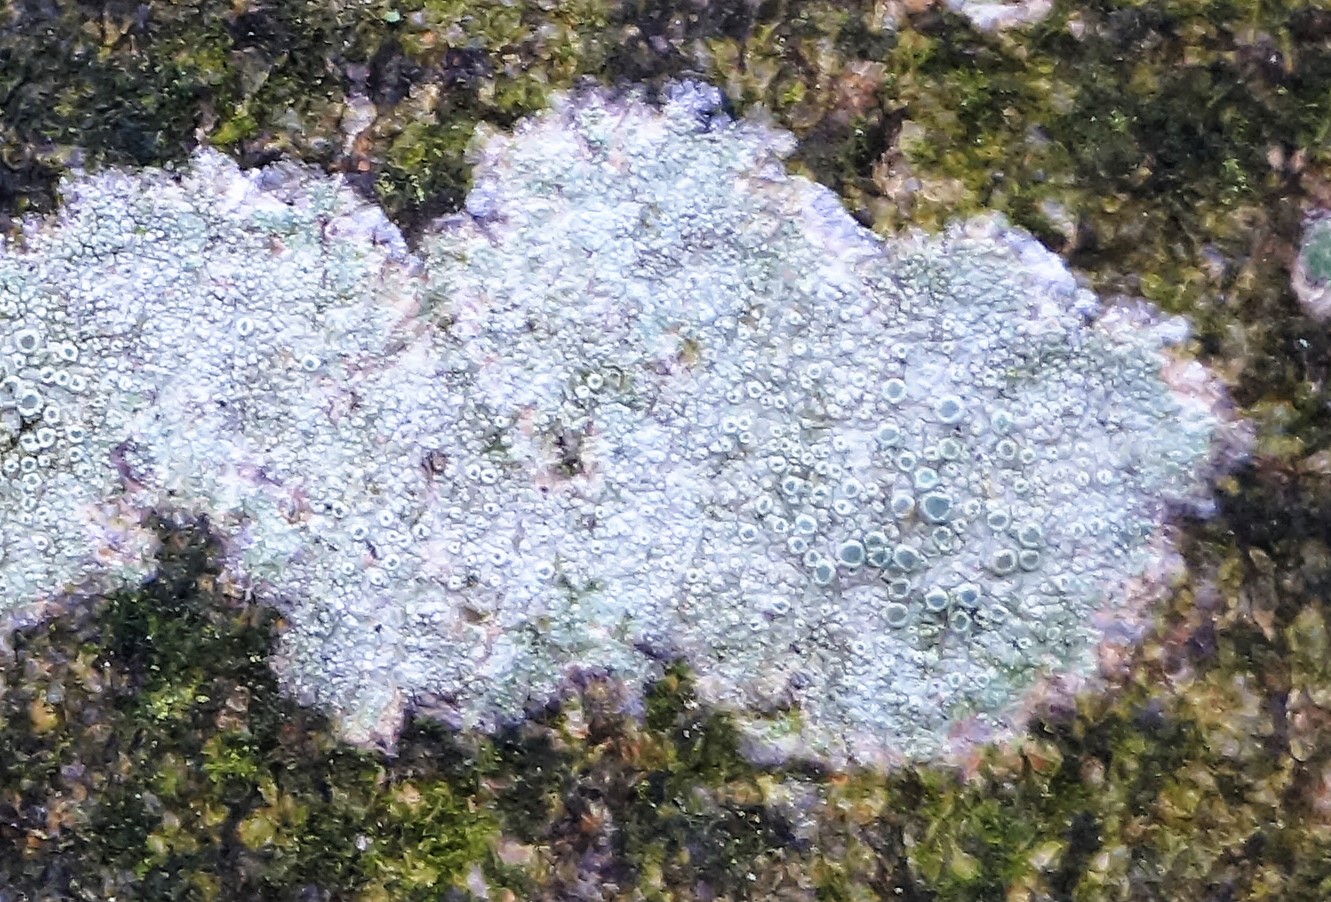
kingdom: Fungi
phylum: Ascomycota
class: Lecanoromycetes
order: Lecanorales
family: Lecanoraceae
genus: Lecanora
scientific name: Lecanora chlarotera
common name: brun kantskivelav
